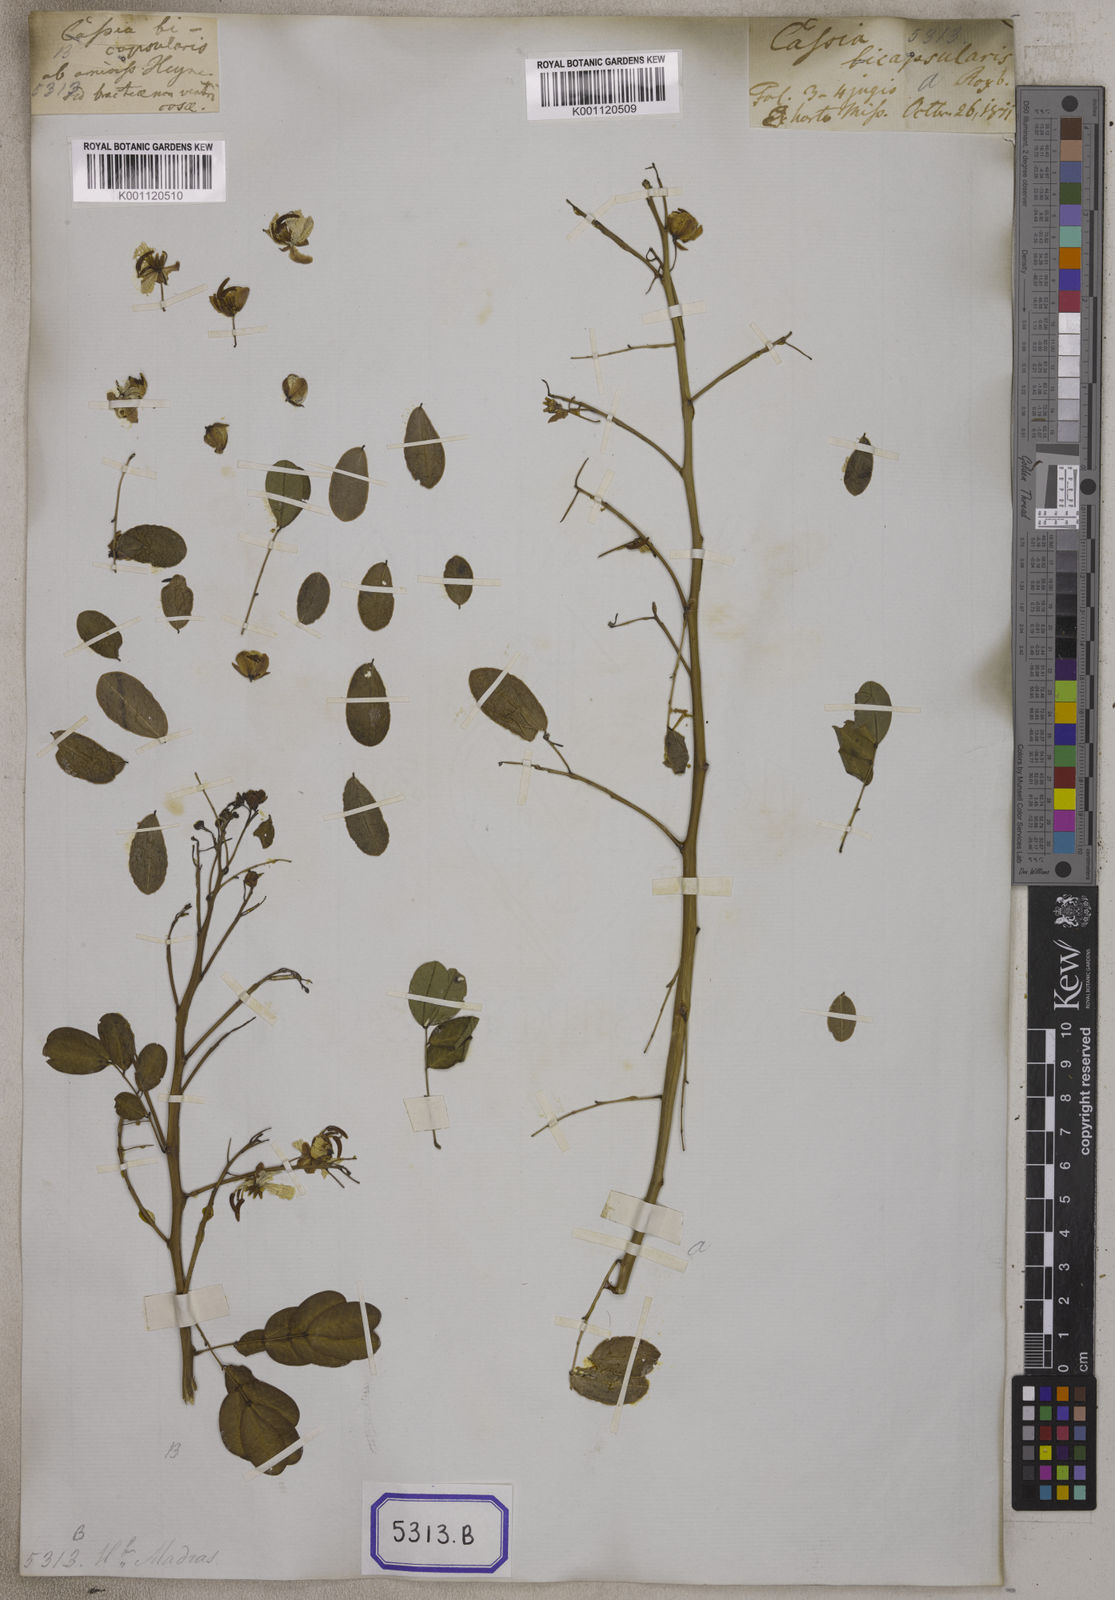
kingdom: Plantae
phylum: Tracheophyta
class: Magnoliopsida
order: Fabales
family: Fabaceae
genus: Senna
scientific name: Senna bicapsularis
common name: Christmasbush
